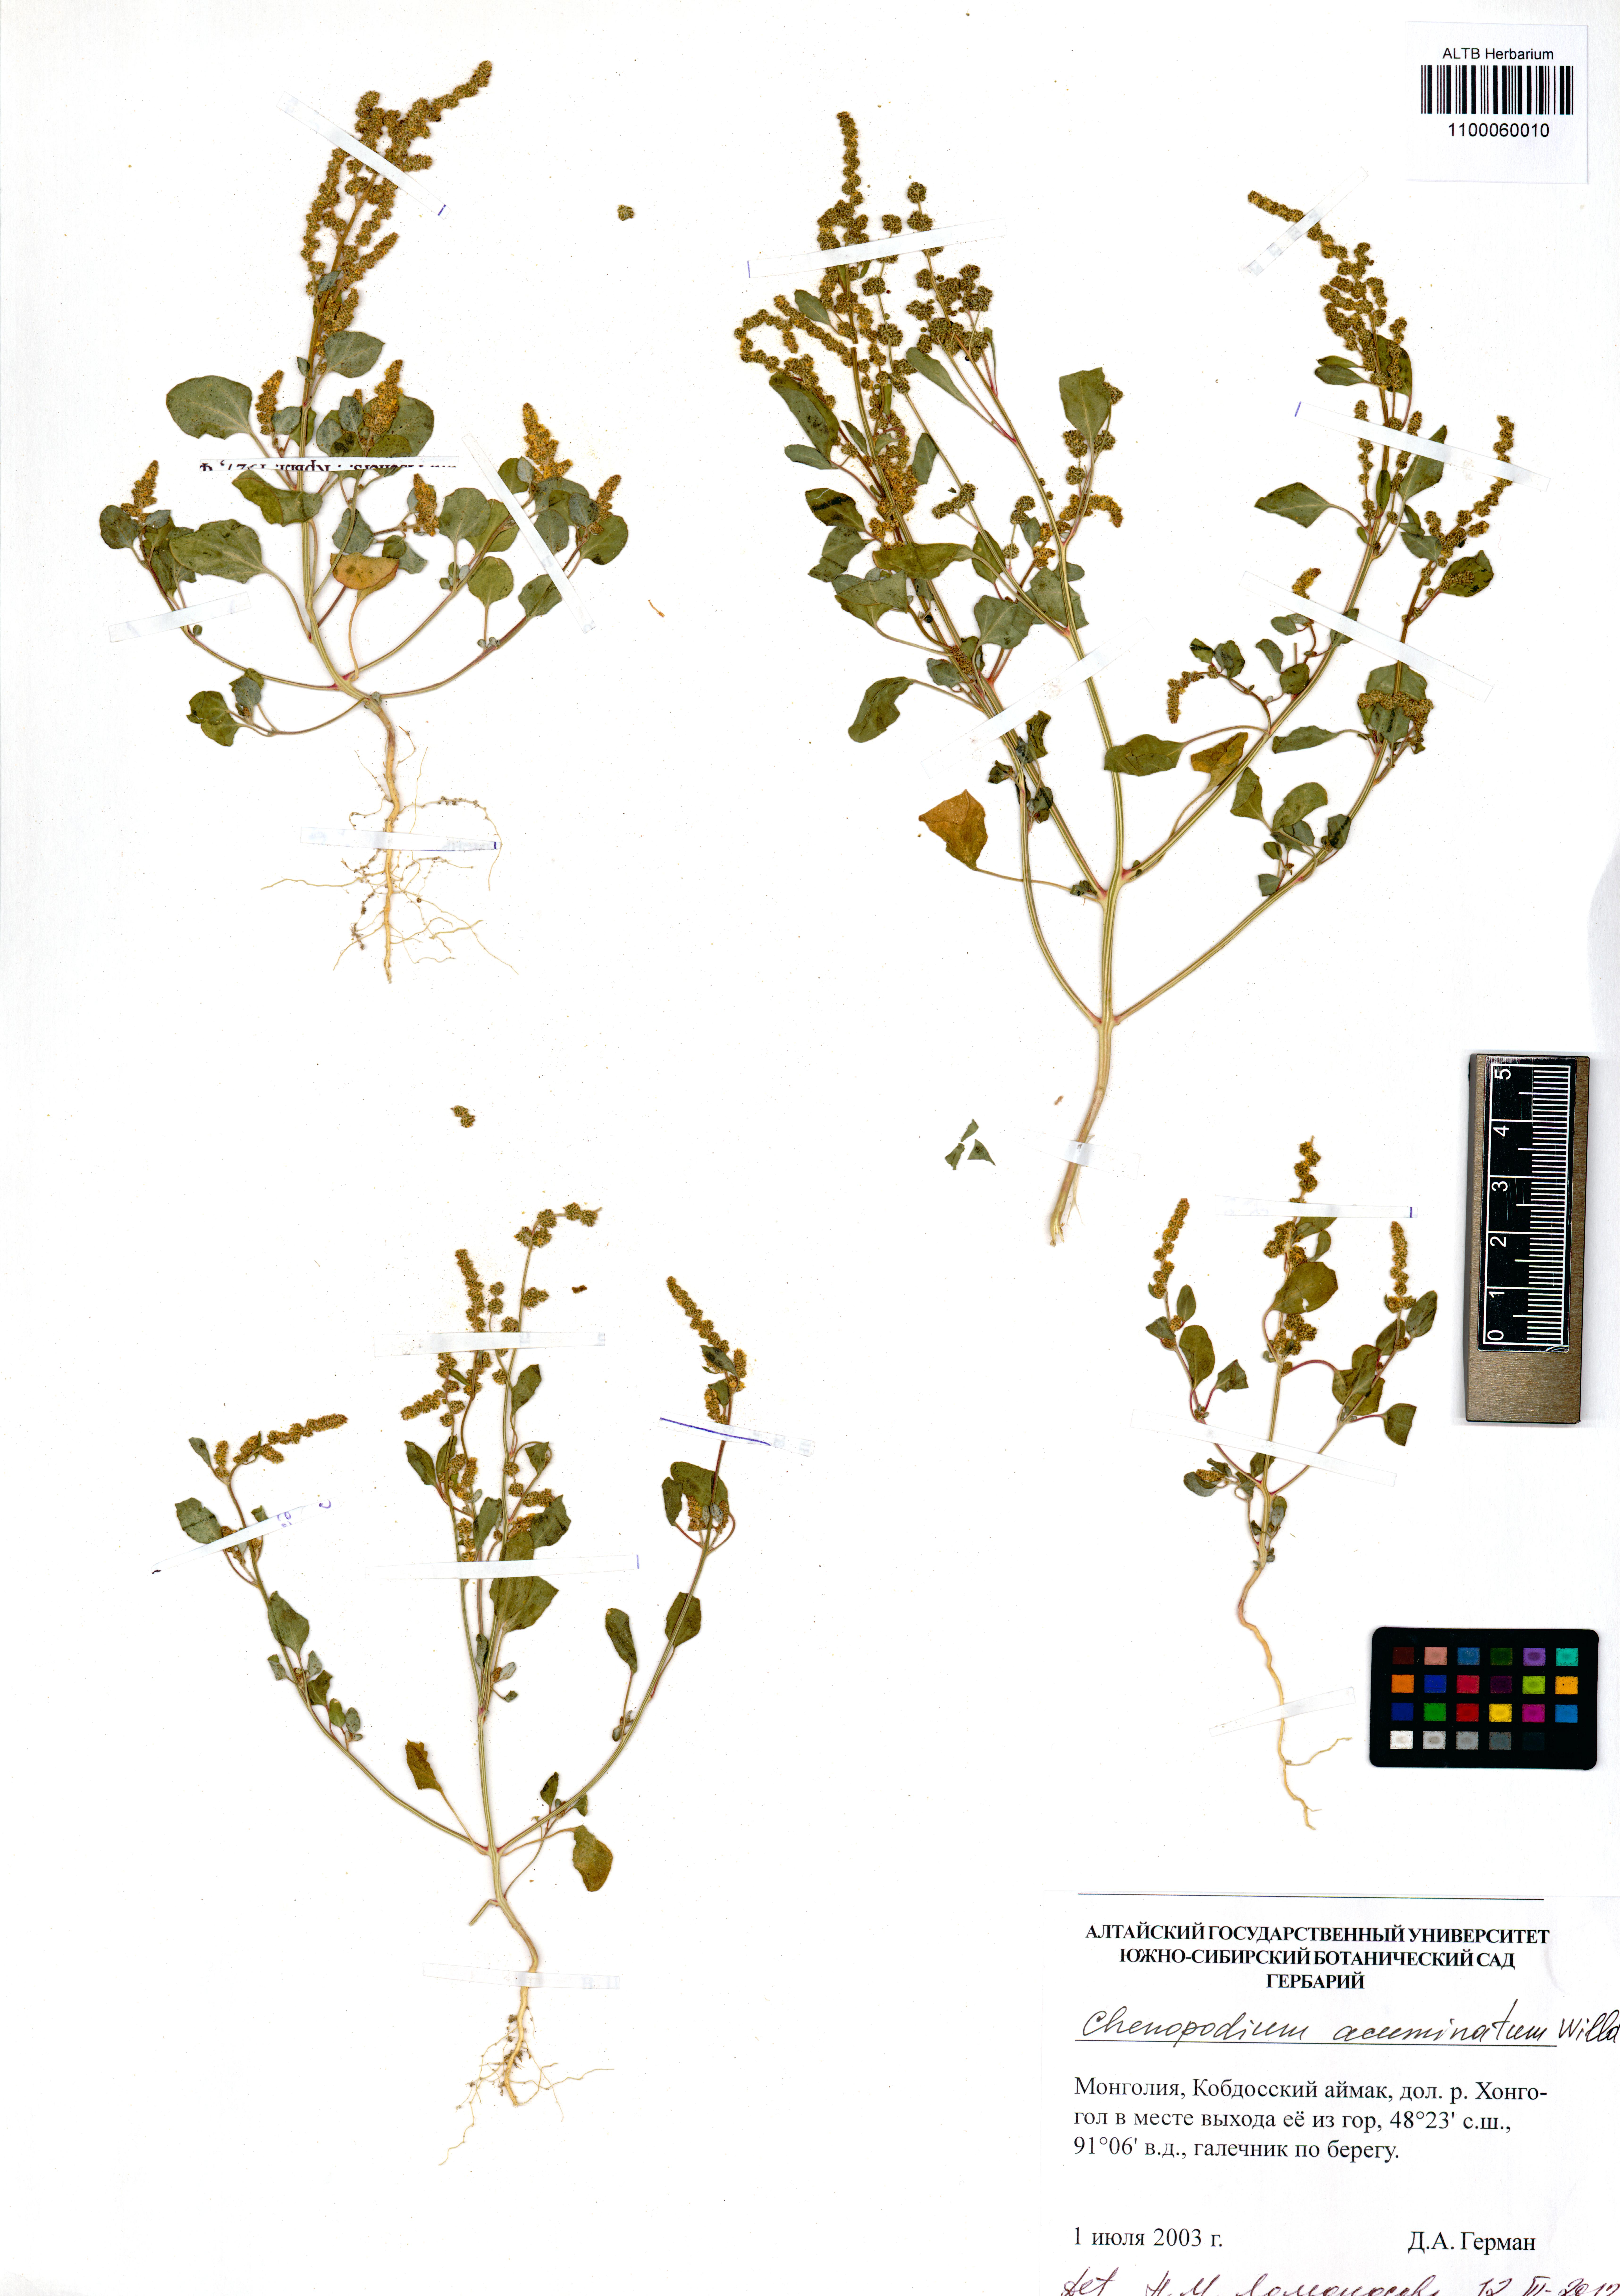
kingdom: Plantae
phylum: Tracheophyta
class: Magnoliopsida
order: Caryophyllales
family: Amaranthaceae
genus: Chenopodium
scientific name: Chenopodium acuminatum
